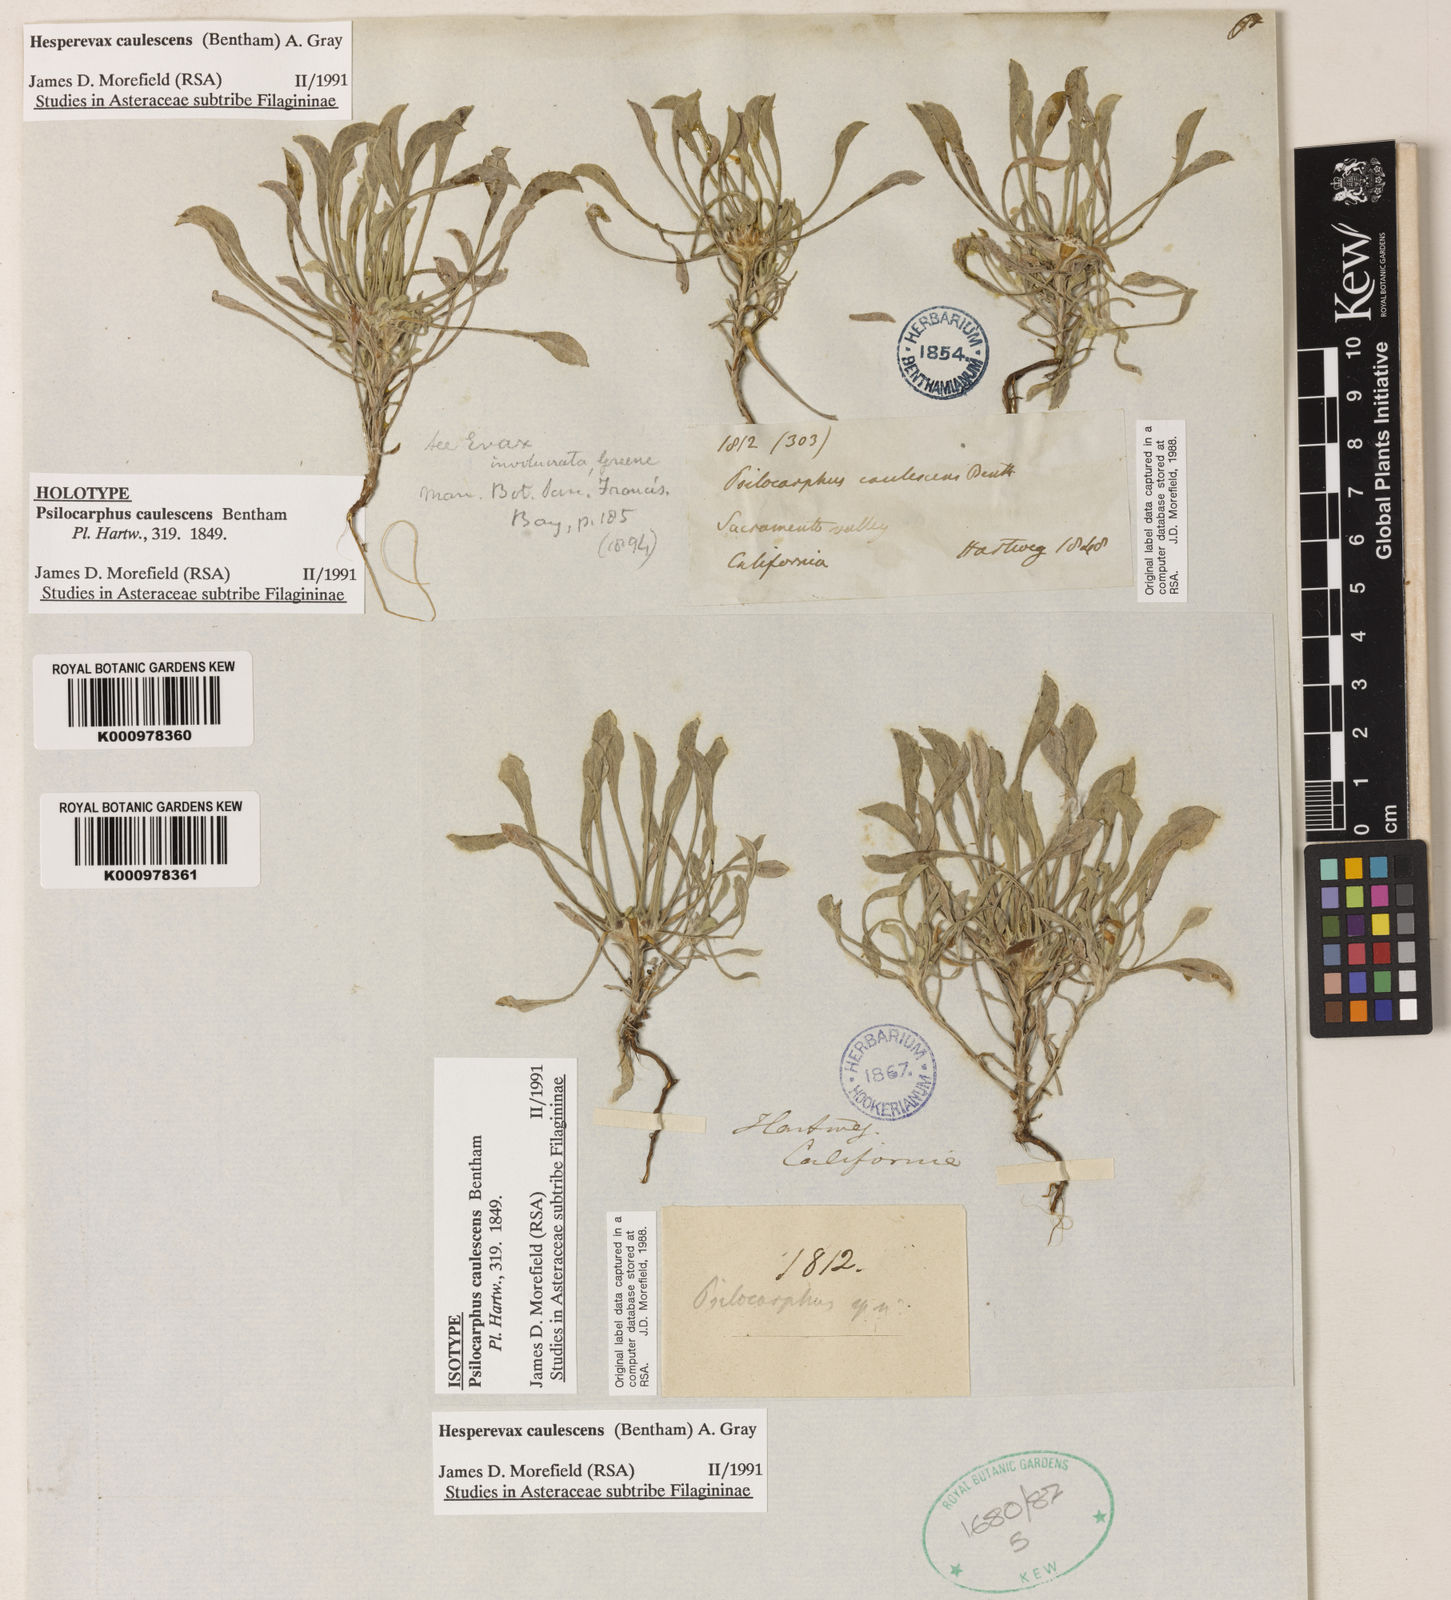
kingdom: Plantae
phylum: Tracheophyta
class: Magnoliopsida
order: Asterales
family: Asteraceae
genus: Hesperevax
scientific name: Hesperevax caulescens
